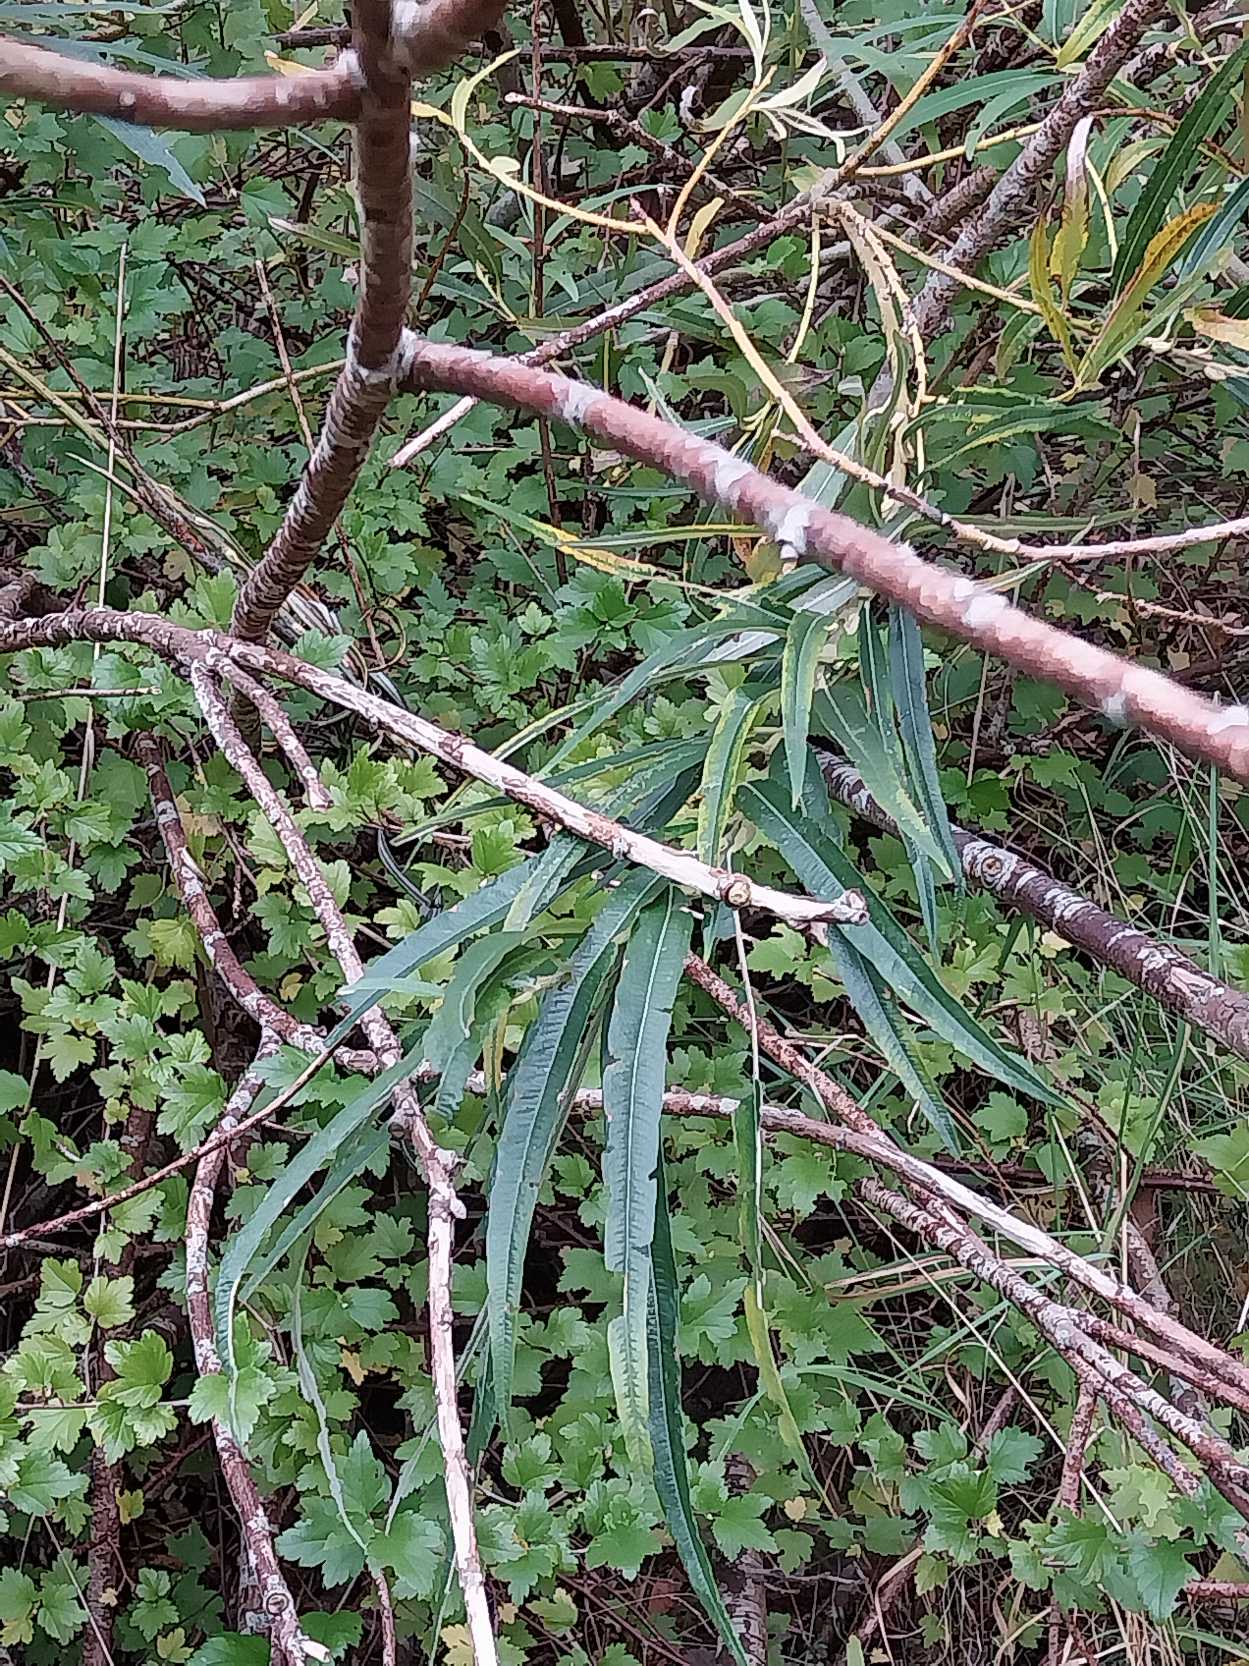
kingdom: Plantae
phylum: Tracheophyta
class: Magnoliopsida
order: Malpighiales
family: Salicaceae
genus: Salix
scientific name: Salix viminalis
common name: Bånd-pil
